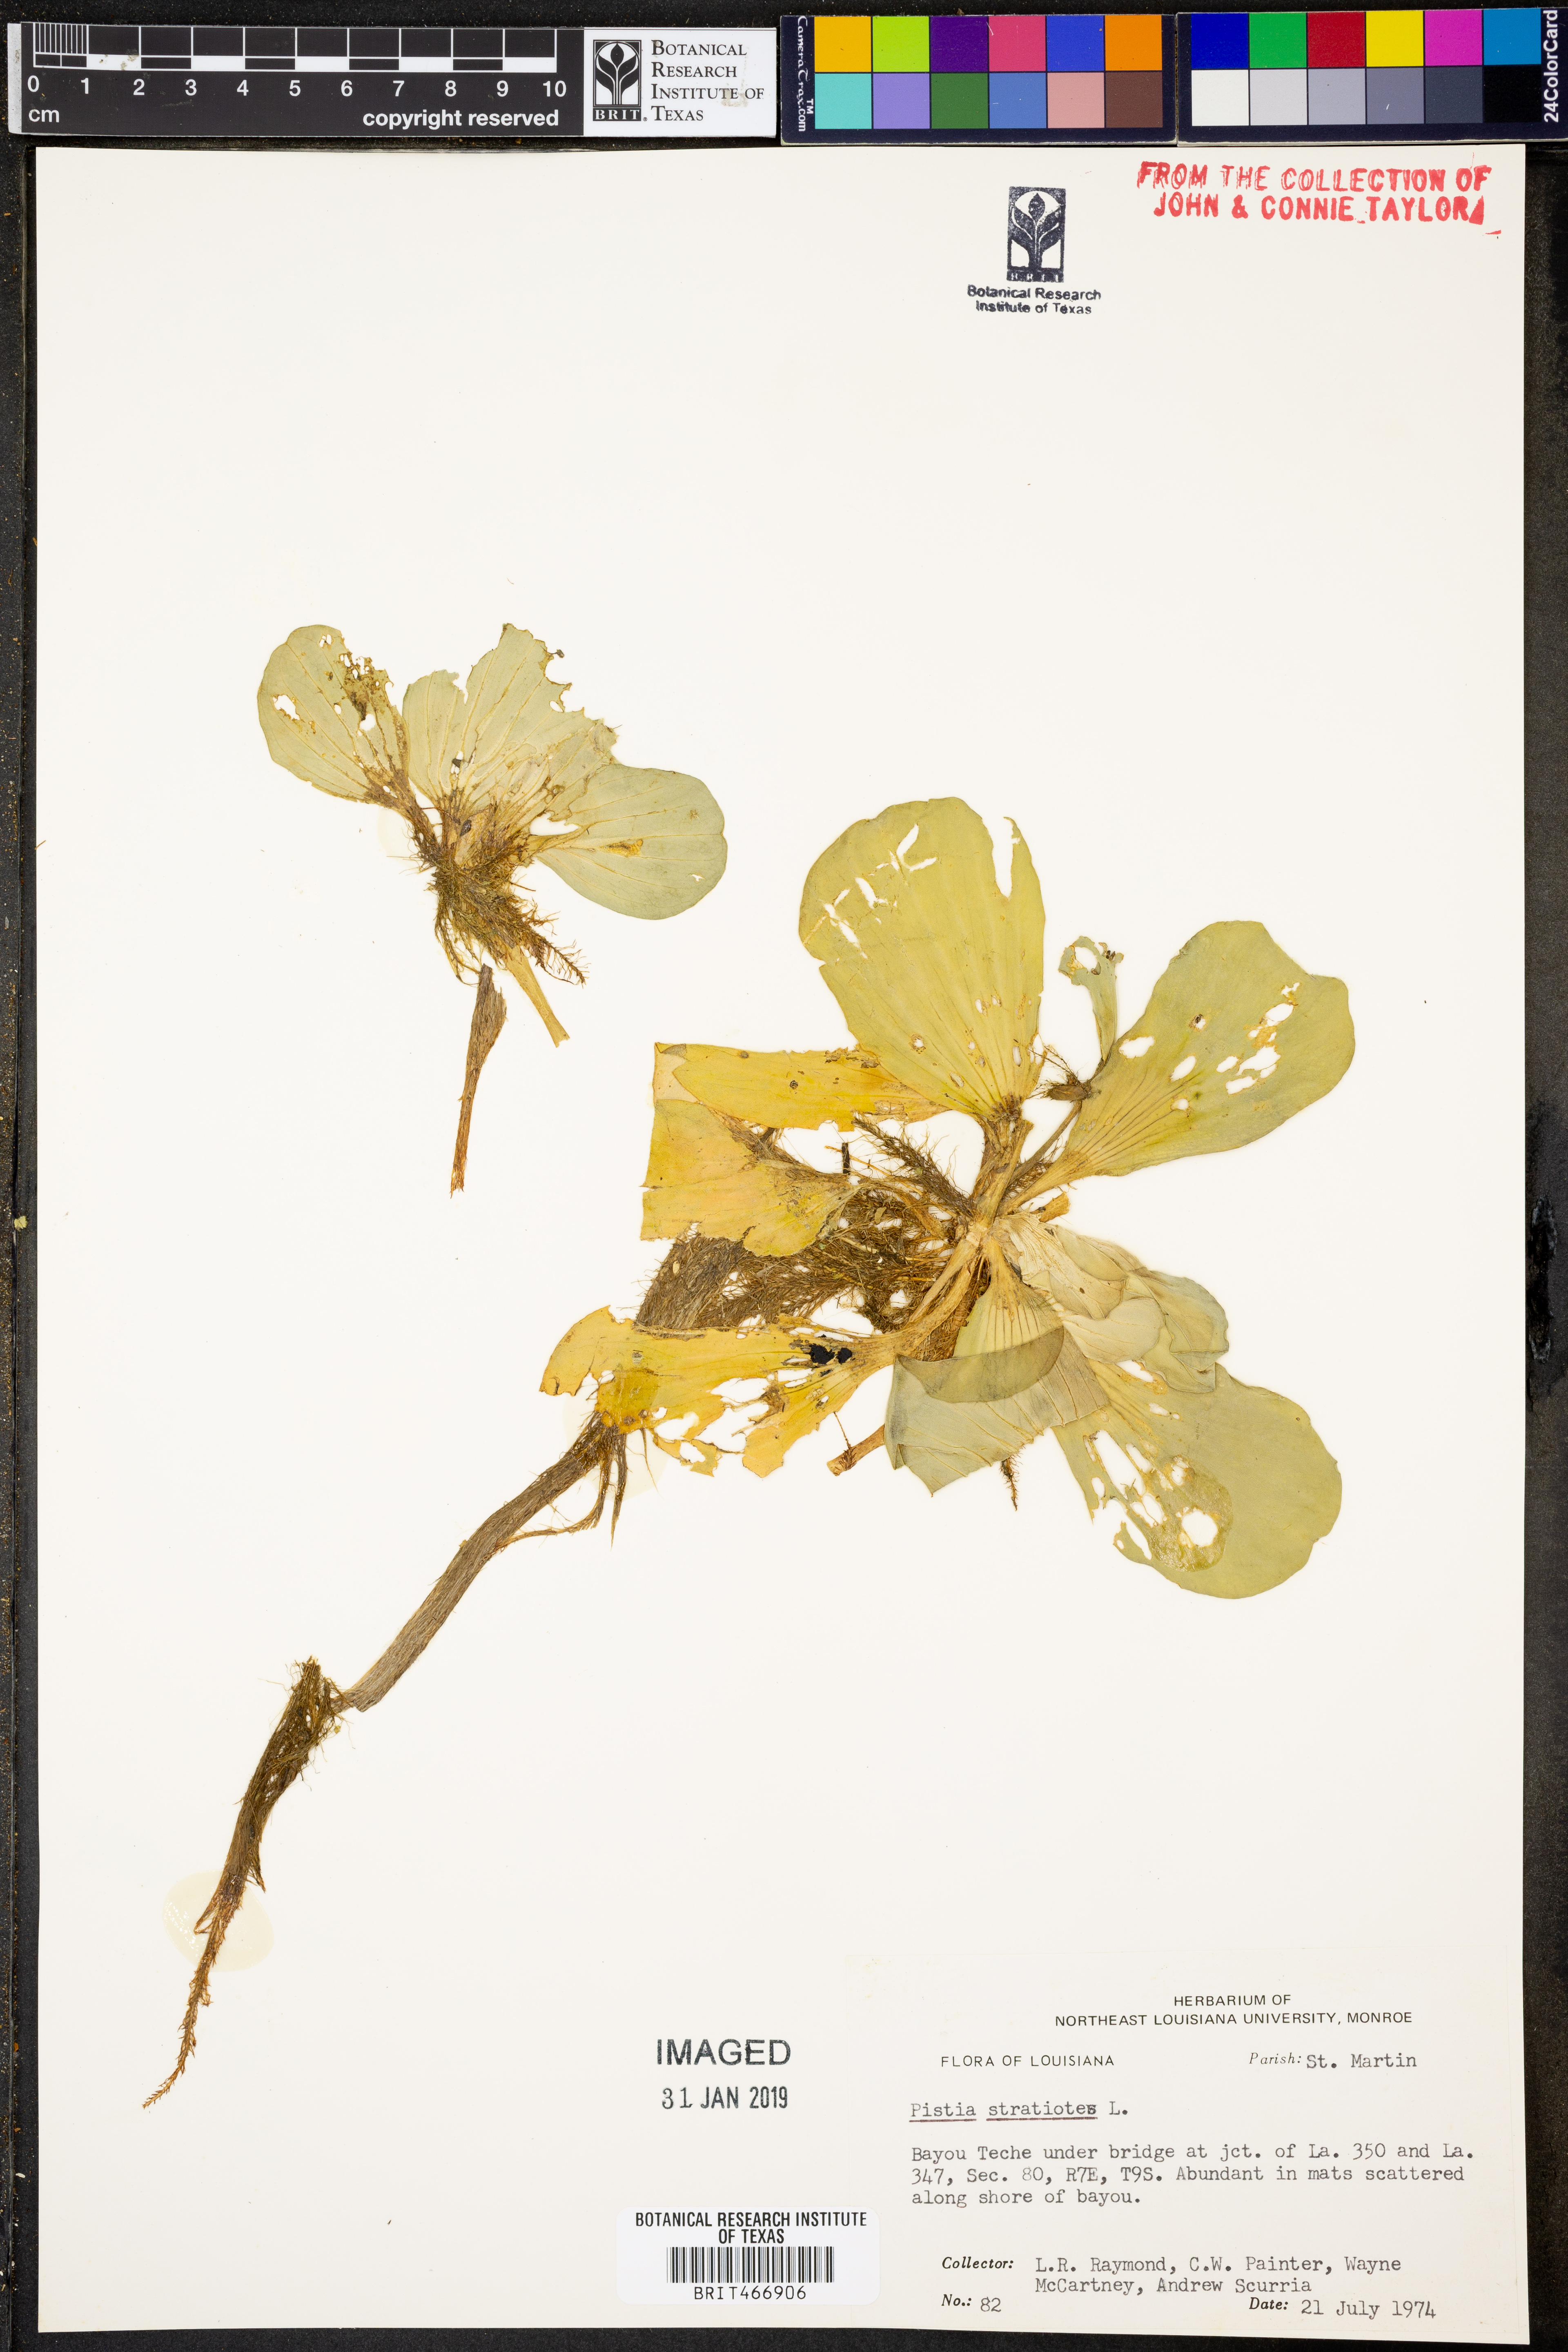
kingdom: Plantae
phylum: Tracheophyta
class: Liliopsida
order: Alismatales
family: Araceae
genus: Pistia
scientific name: Pistia stratiotes
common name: Water lettuce
